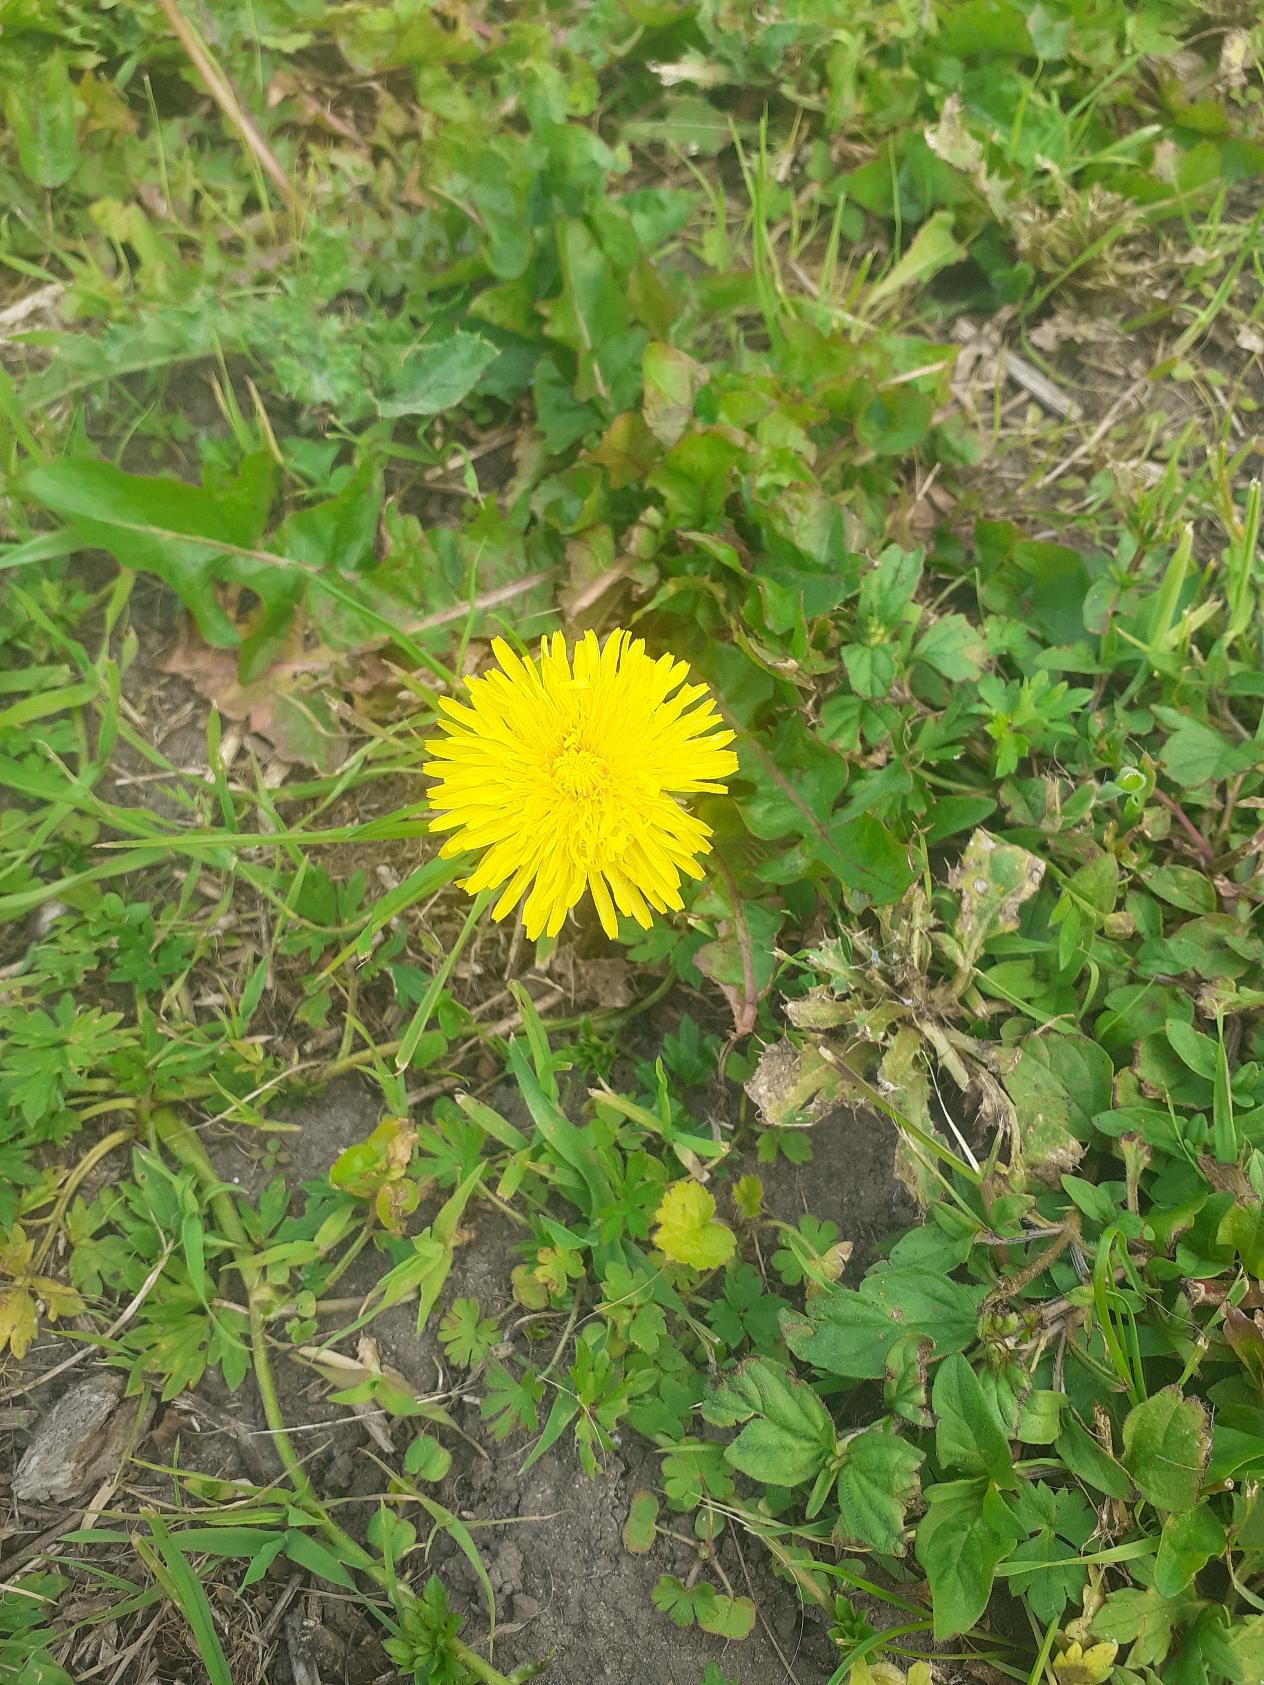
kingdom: Plantae
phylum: Tracheophyta
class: Magnoliopsida
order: Asterales
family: Asteraceae
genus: Taraxacum
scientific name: Taraxacum
